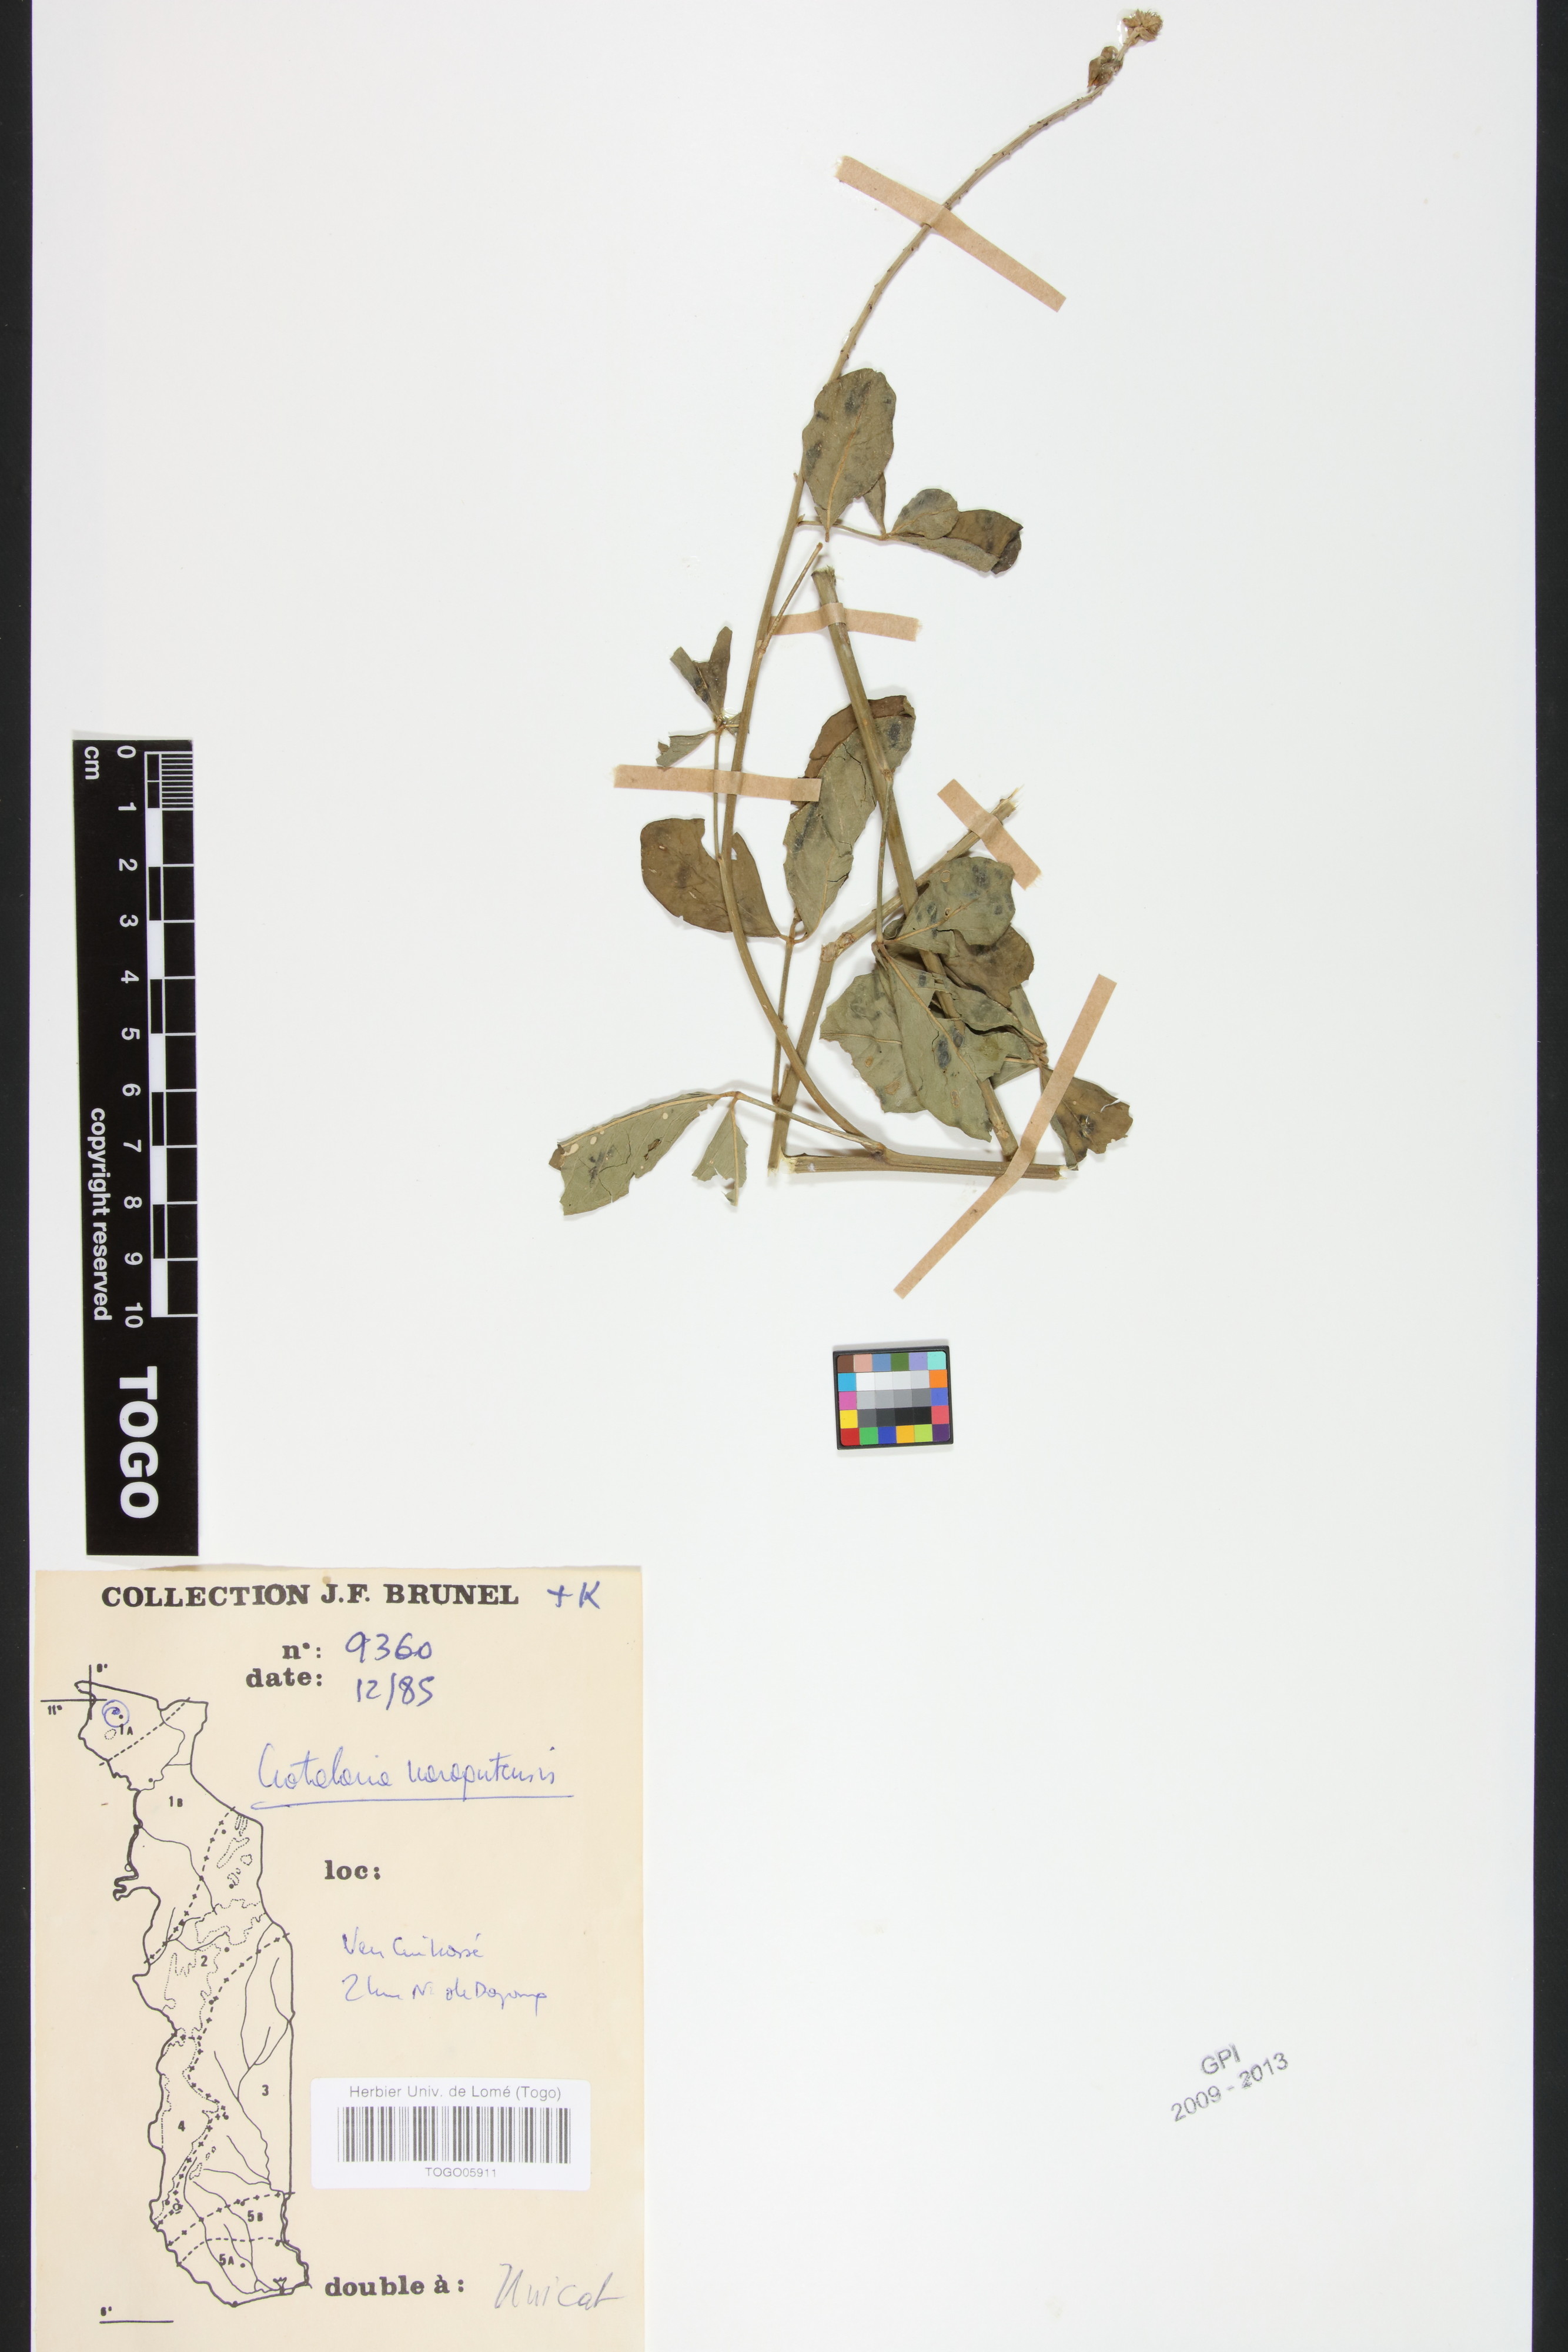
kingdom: Plantae
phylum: Tracheophyta
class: Magnoliopsida
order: Fabales
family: Fabaceae
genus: Crotalaria
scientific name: Crotalaria naragutensis
